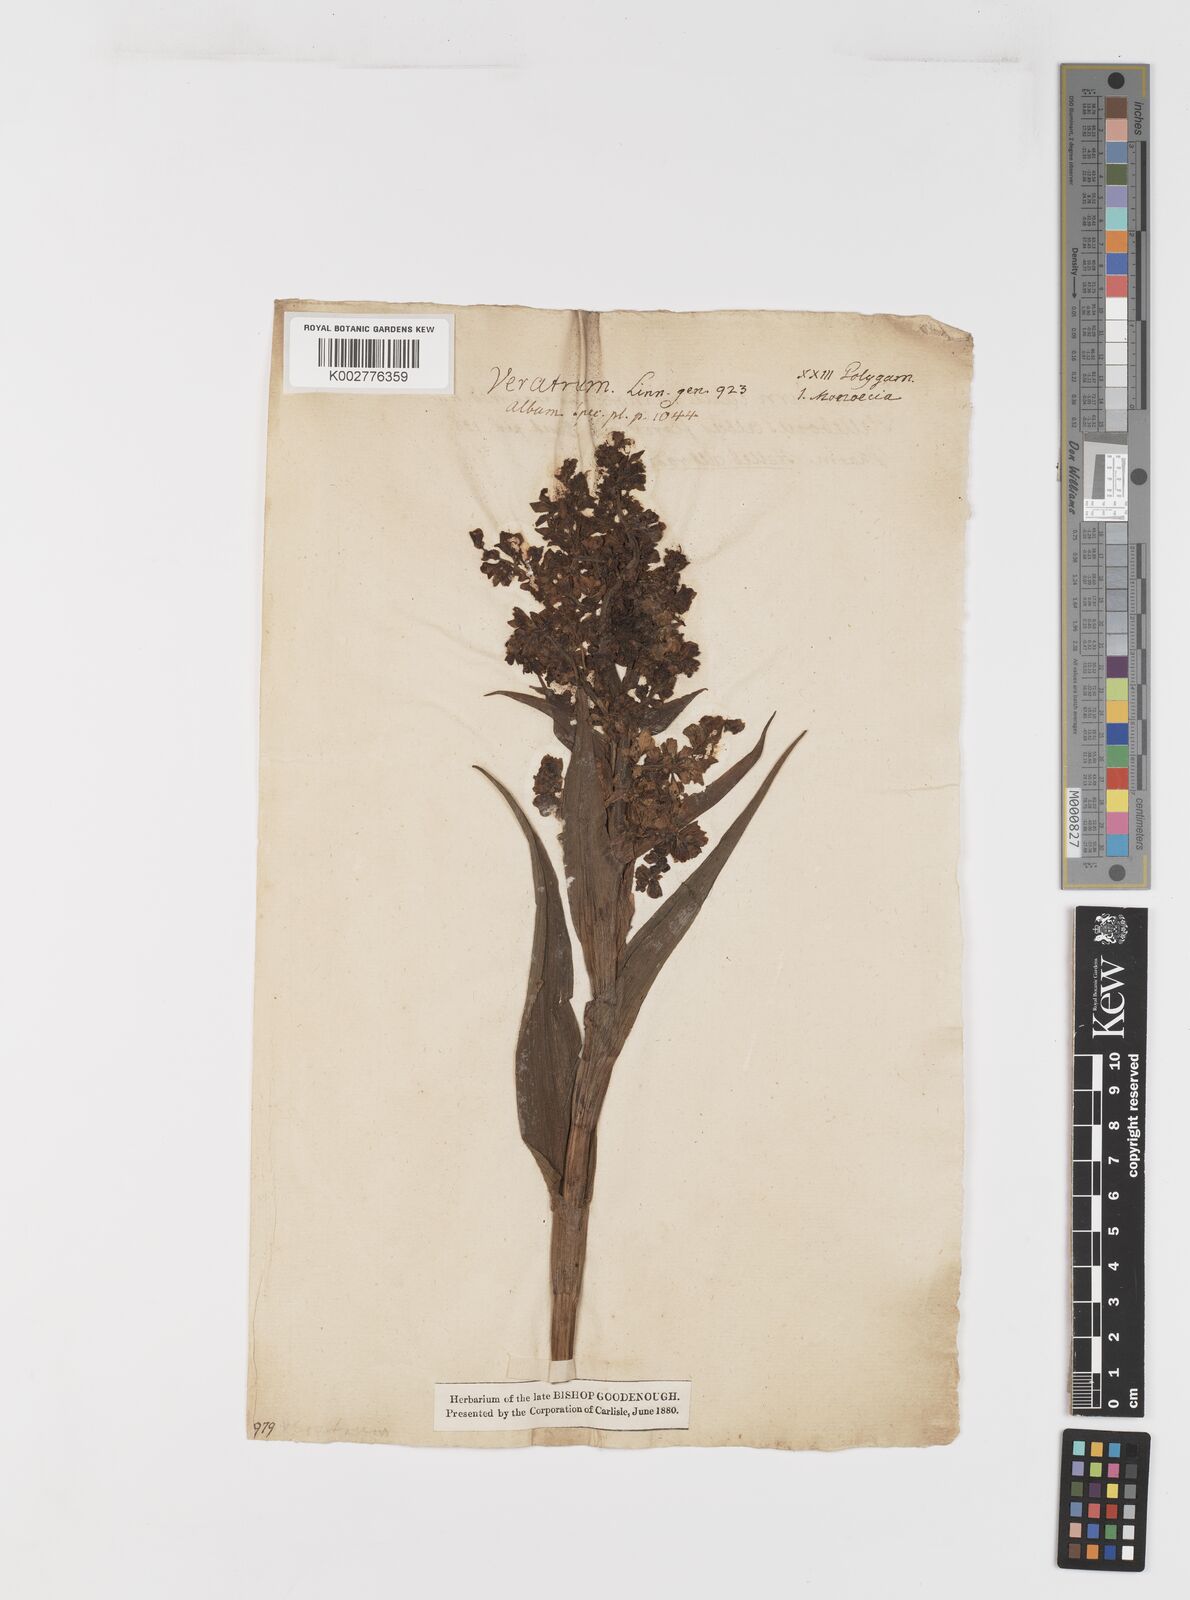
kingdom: Plantae
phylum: Tracheophyta
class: Liliopsida
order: Liliales
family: Melanthiaceae
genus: Veratrum
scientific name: Veratrum nigrum
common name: Black veratrum
